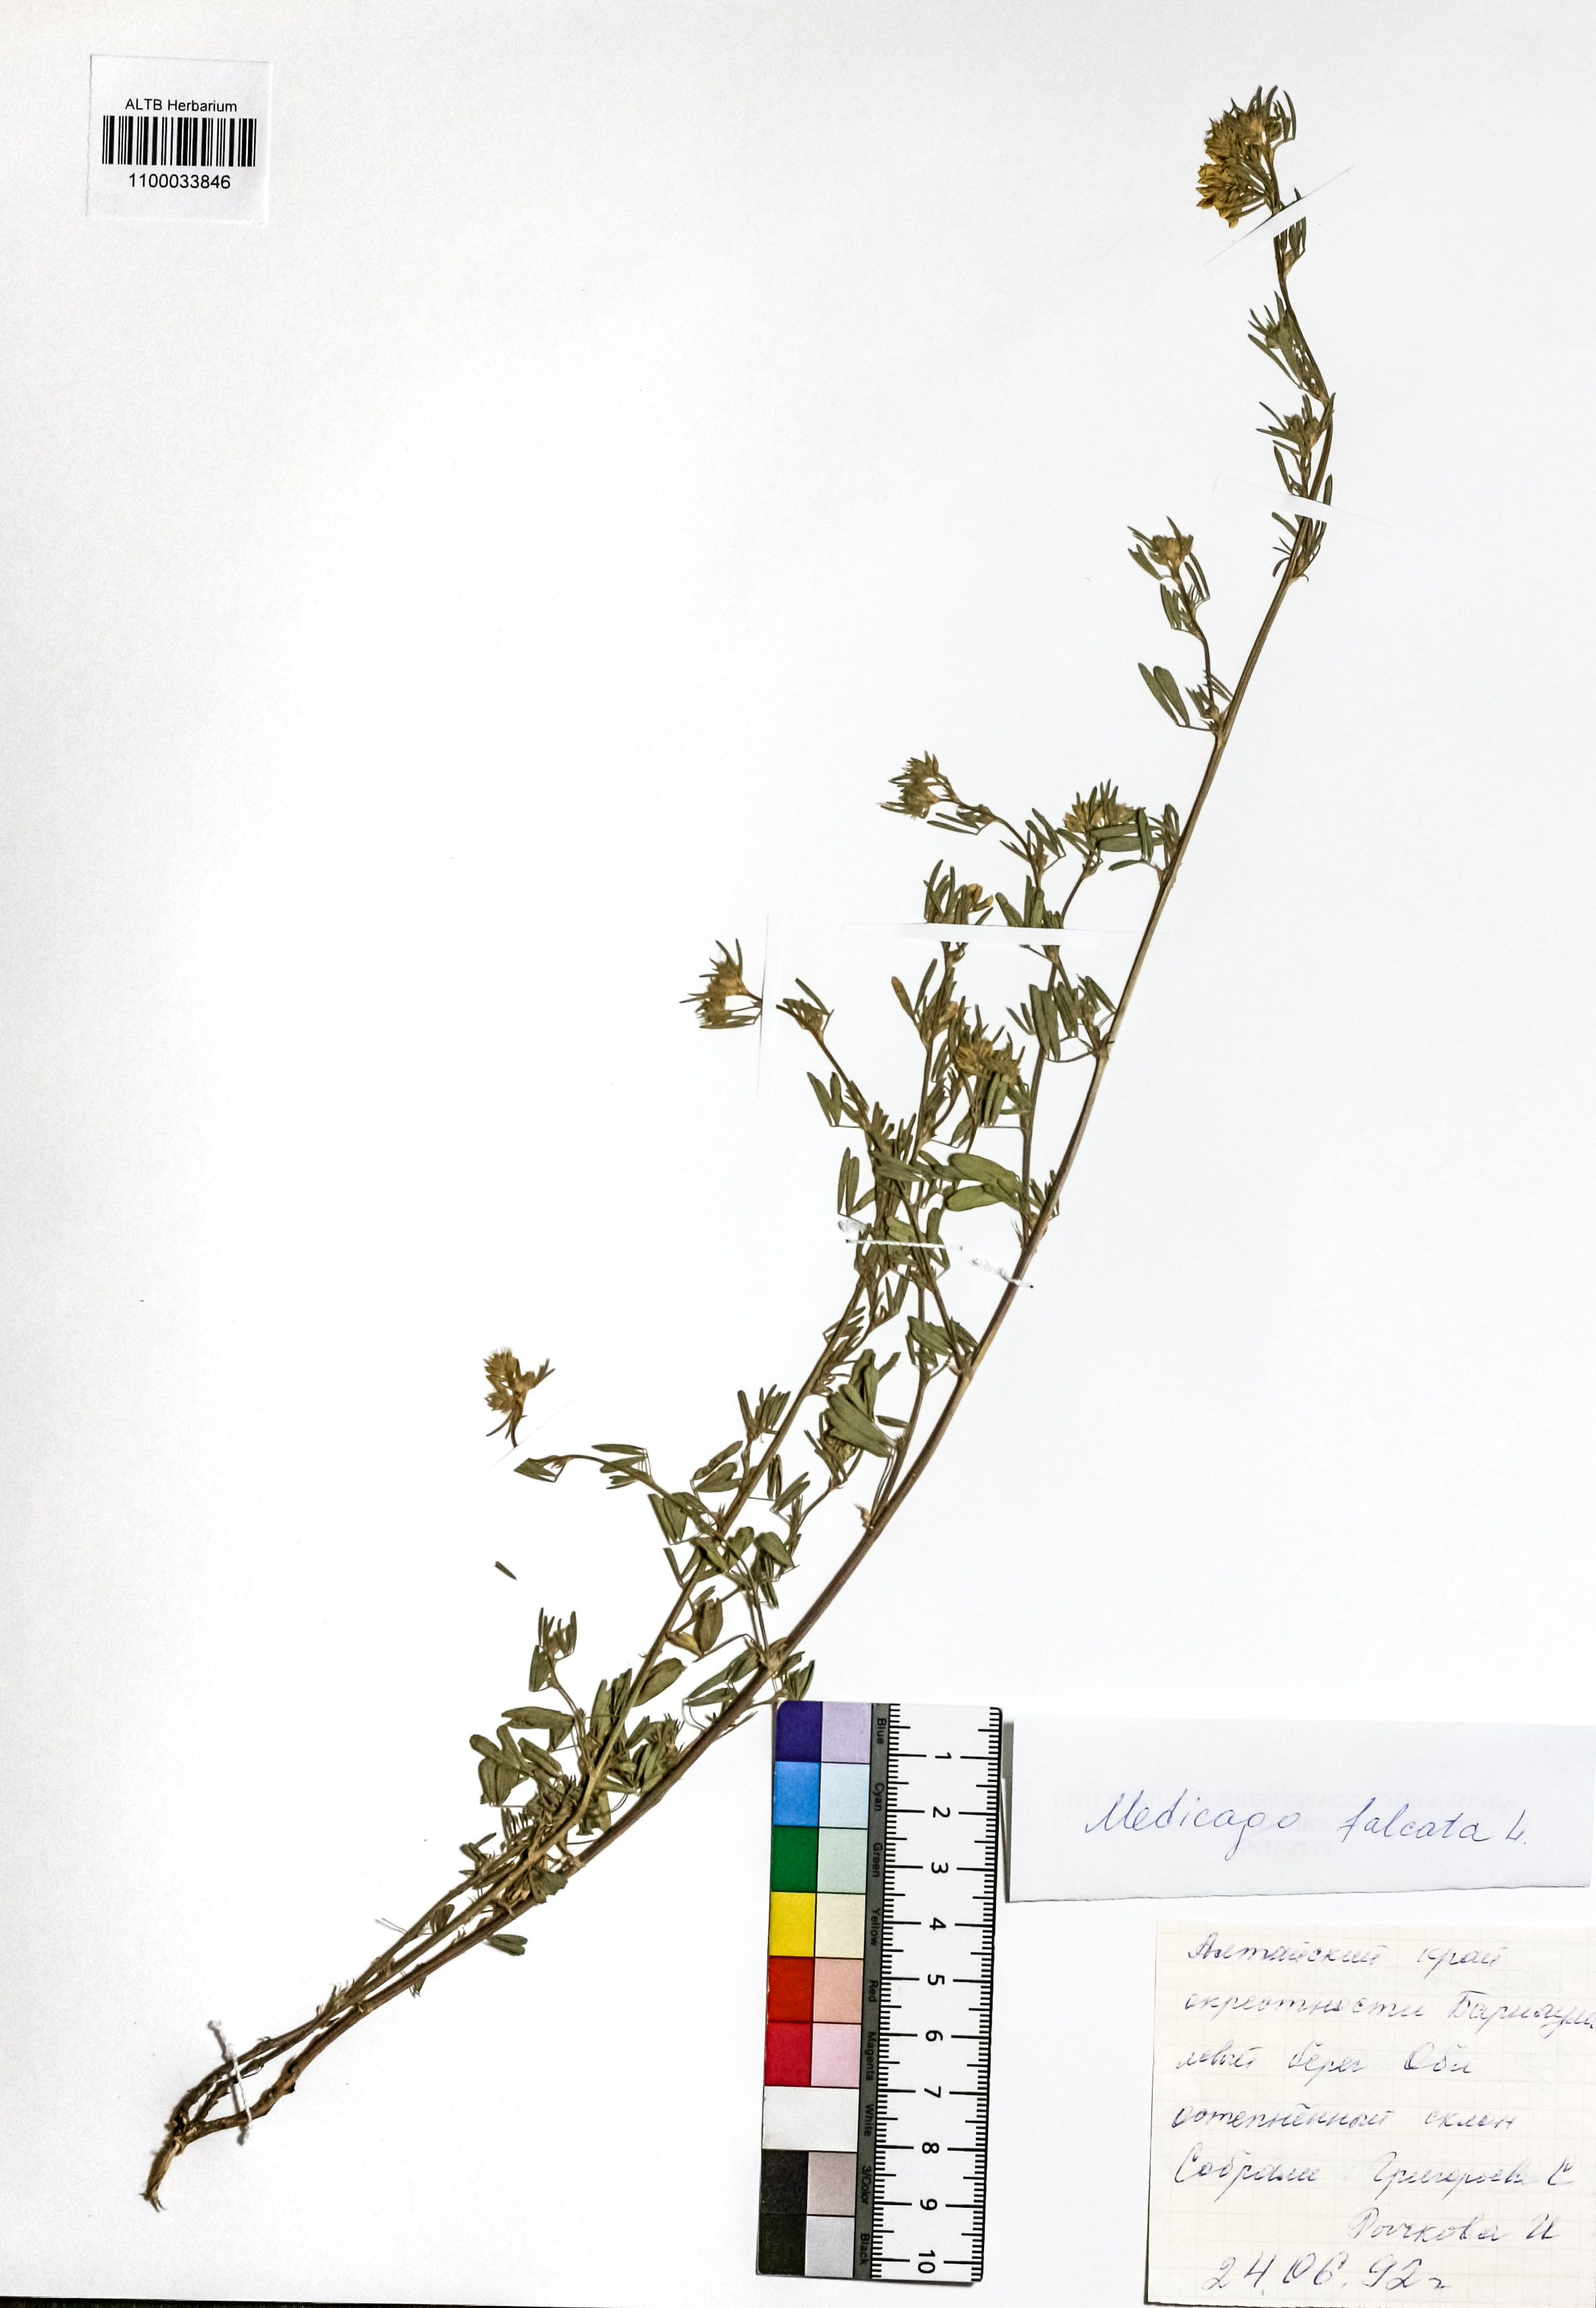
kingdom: Plantae
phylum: Tracheophyta
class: Magnoliopsida
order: Fabales
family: Fabaceae
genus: Medicago
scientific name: Medicago falcata
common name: Sickle medick
